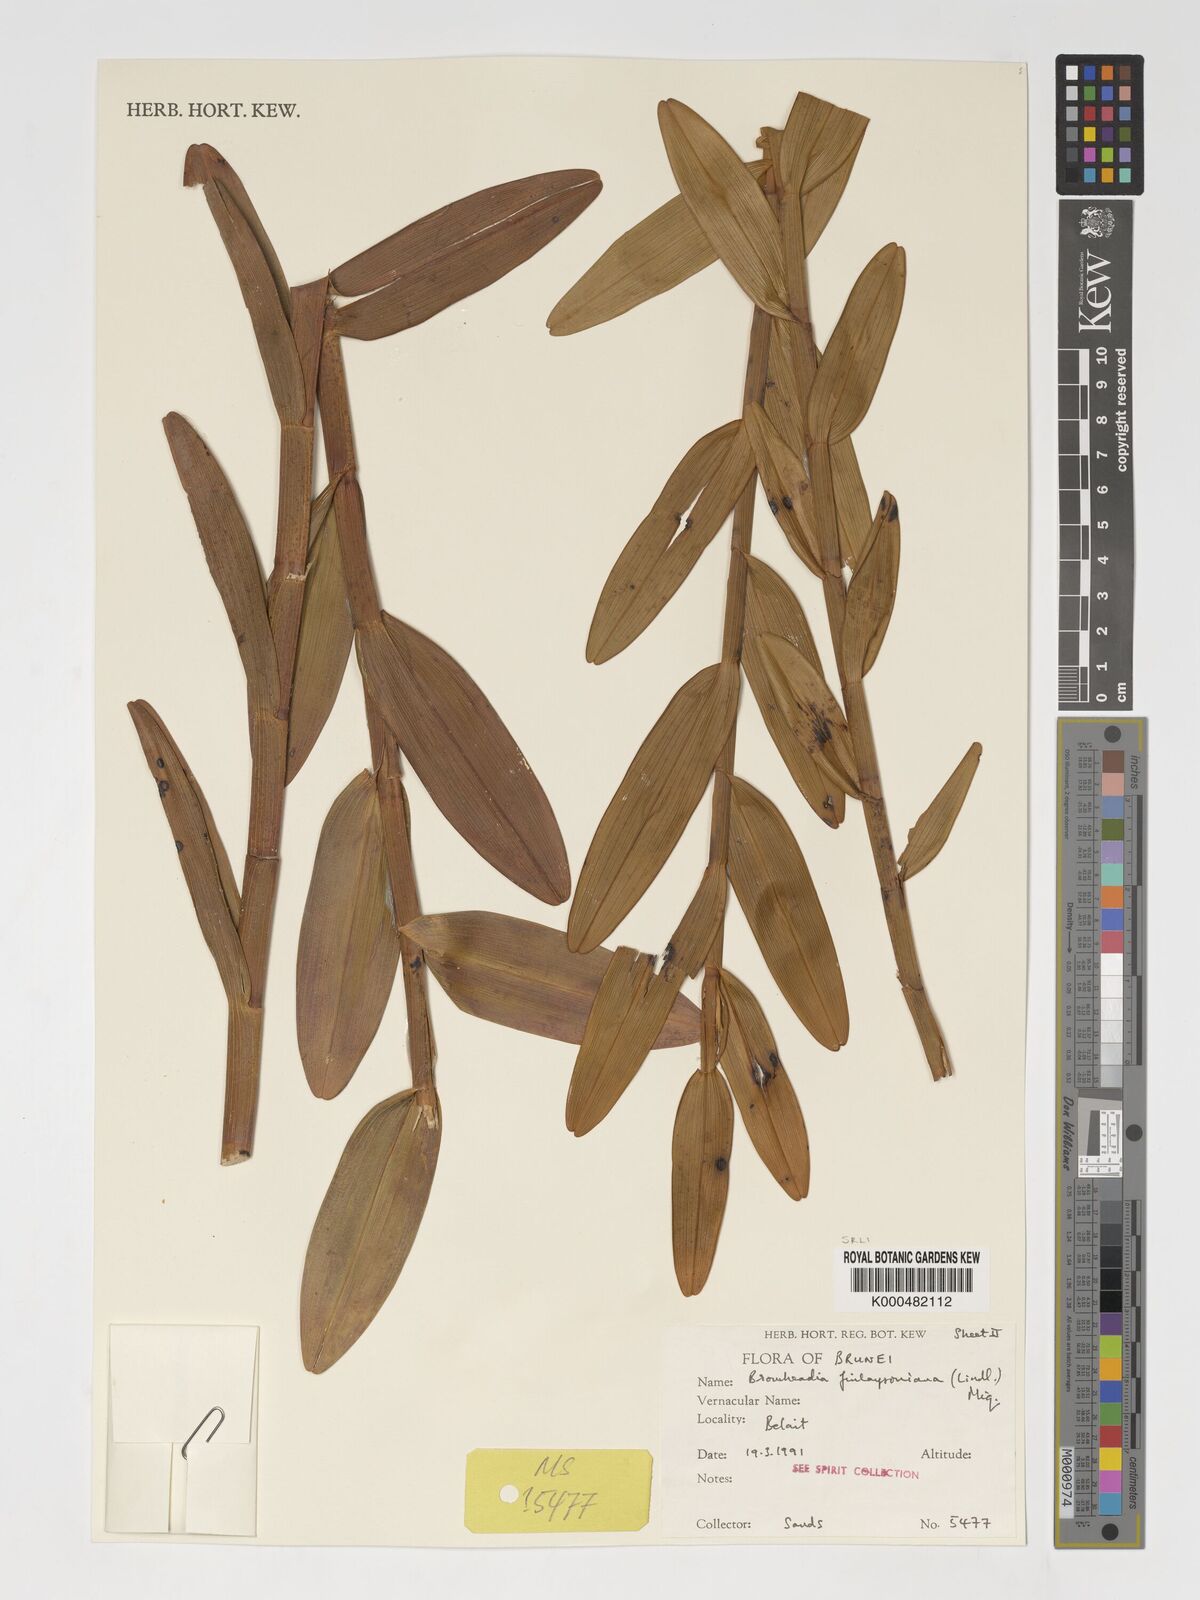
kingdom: Plantae
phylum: Tracheophyta
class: Liliopsida
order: Asparagales
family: Orchidaceae
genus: Bromheadia
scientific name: Bromheadia finlaysoniana
